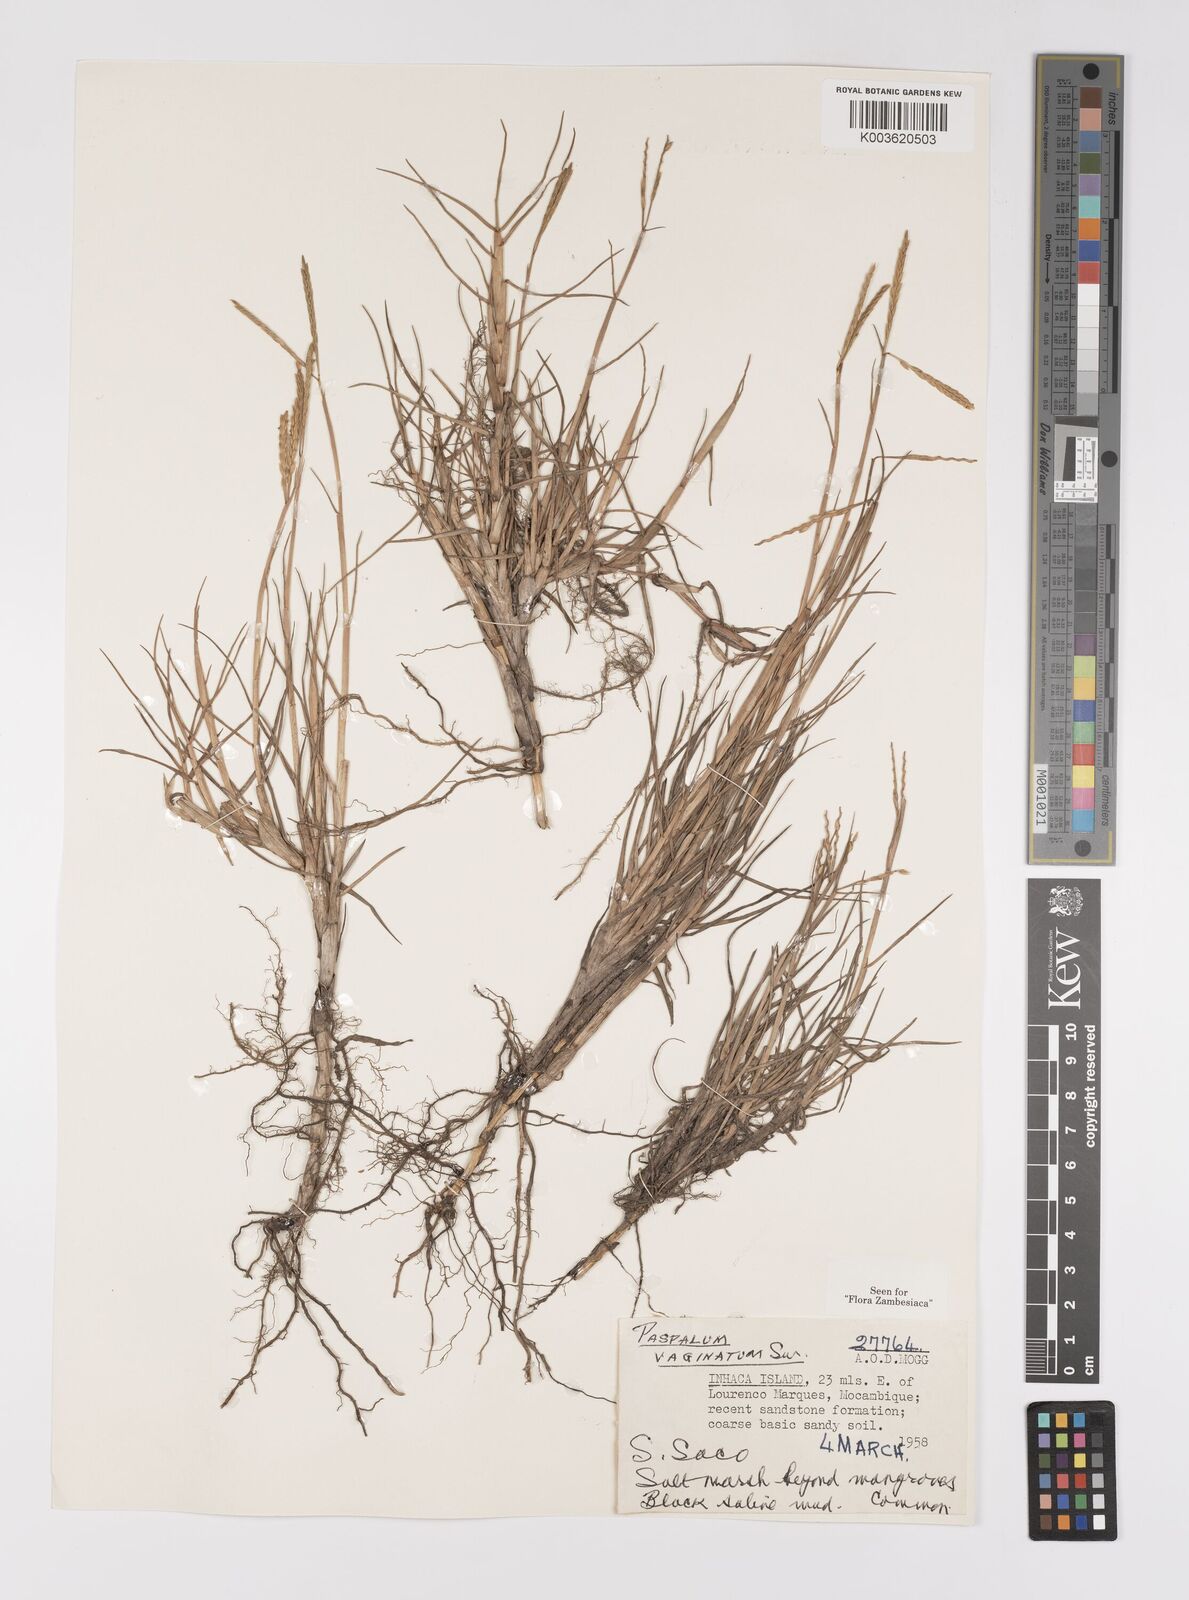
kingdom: Plantae
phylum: Tracheophyta
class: Liliopsida
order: Poales
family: Poaceae
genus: Paspalum
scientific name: Paspalum vaginatum
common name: Seashore paspalum
